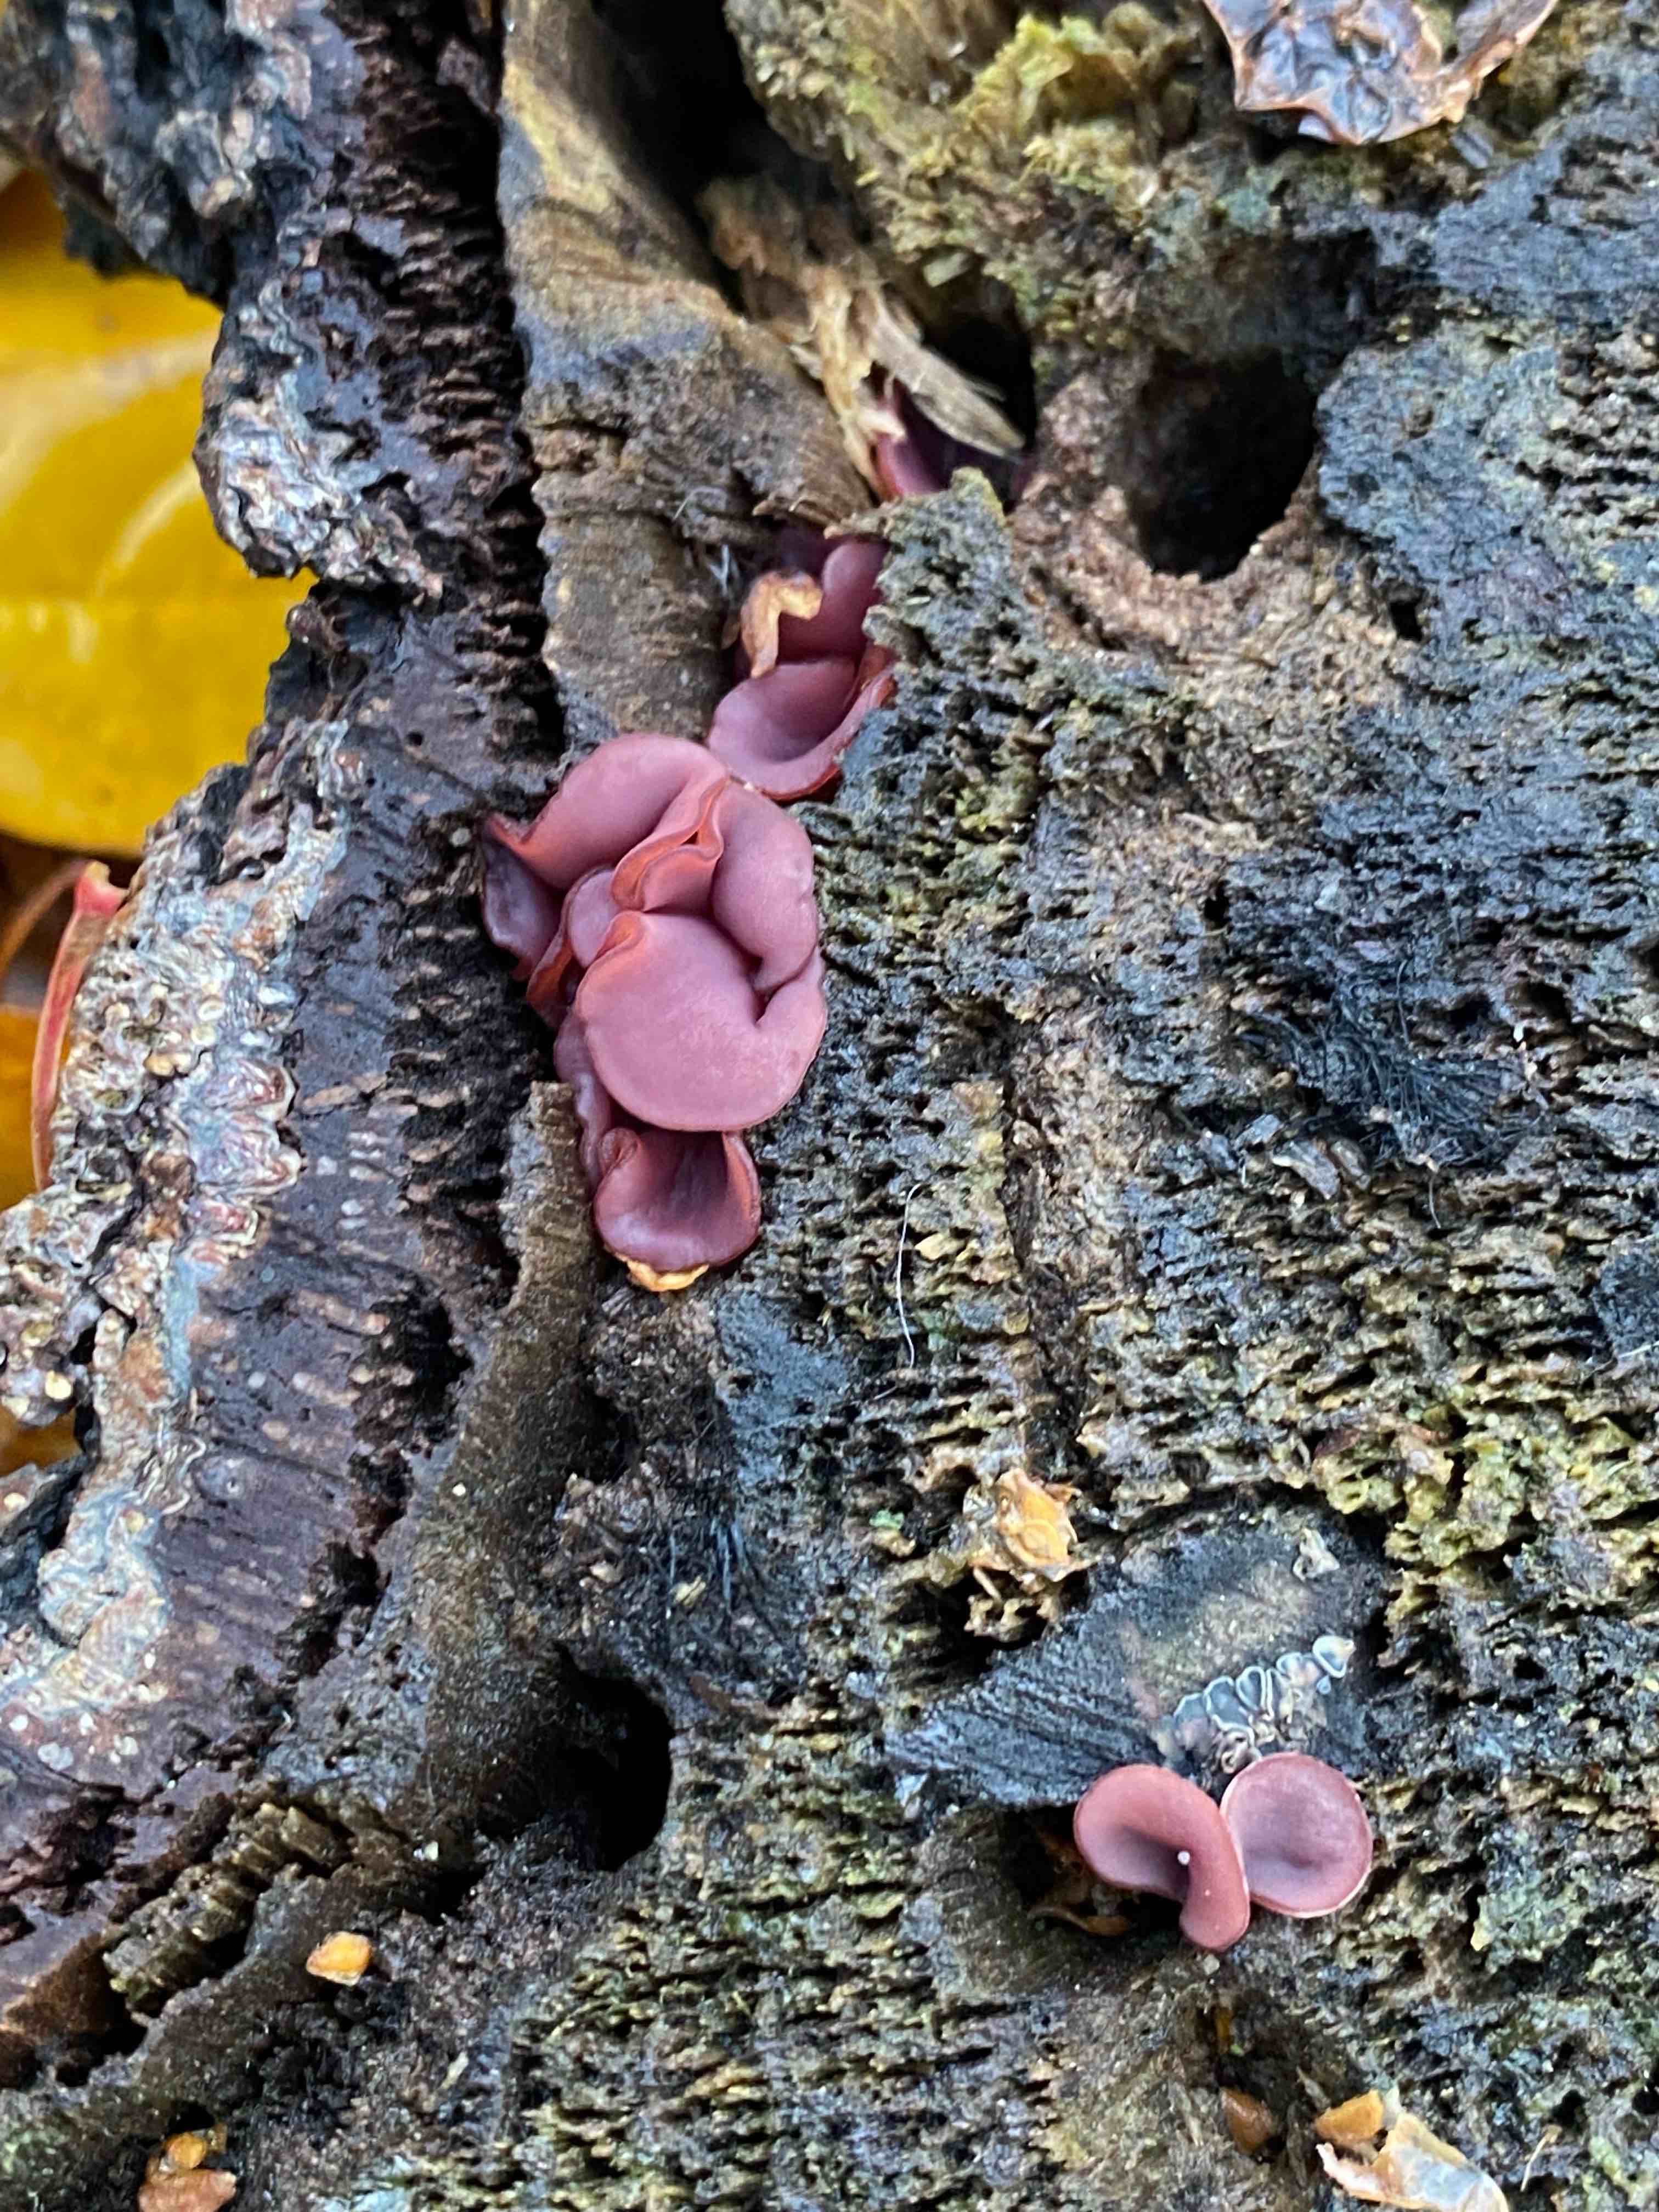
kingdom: Fungi
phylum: Ascomycota
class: Leotiomycetes
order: Helotiales
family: Gelatinodiscaceae
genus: Ascocoryne
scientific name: Ascocoryne cylichnium
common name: stor sejskive
